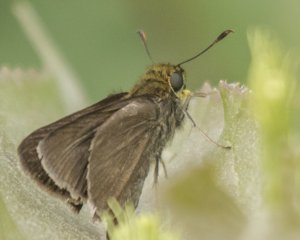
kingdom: Animalia
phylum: Arthropoda
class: Insecta
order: Lepidoptera
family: Hesperiidae
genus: Euphyes
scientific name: Euphyes vestris
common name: Dun Skipper
